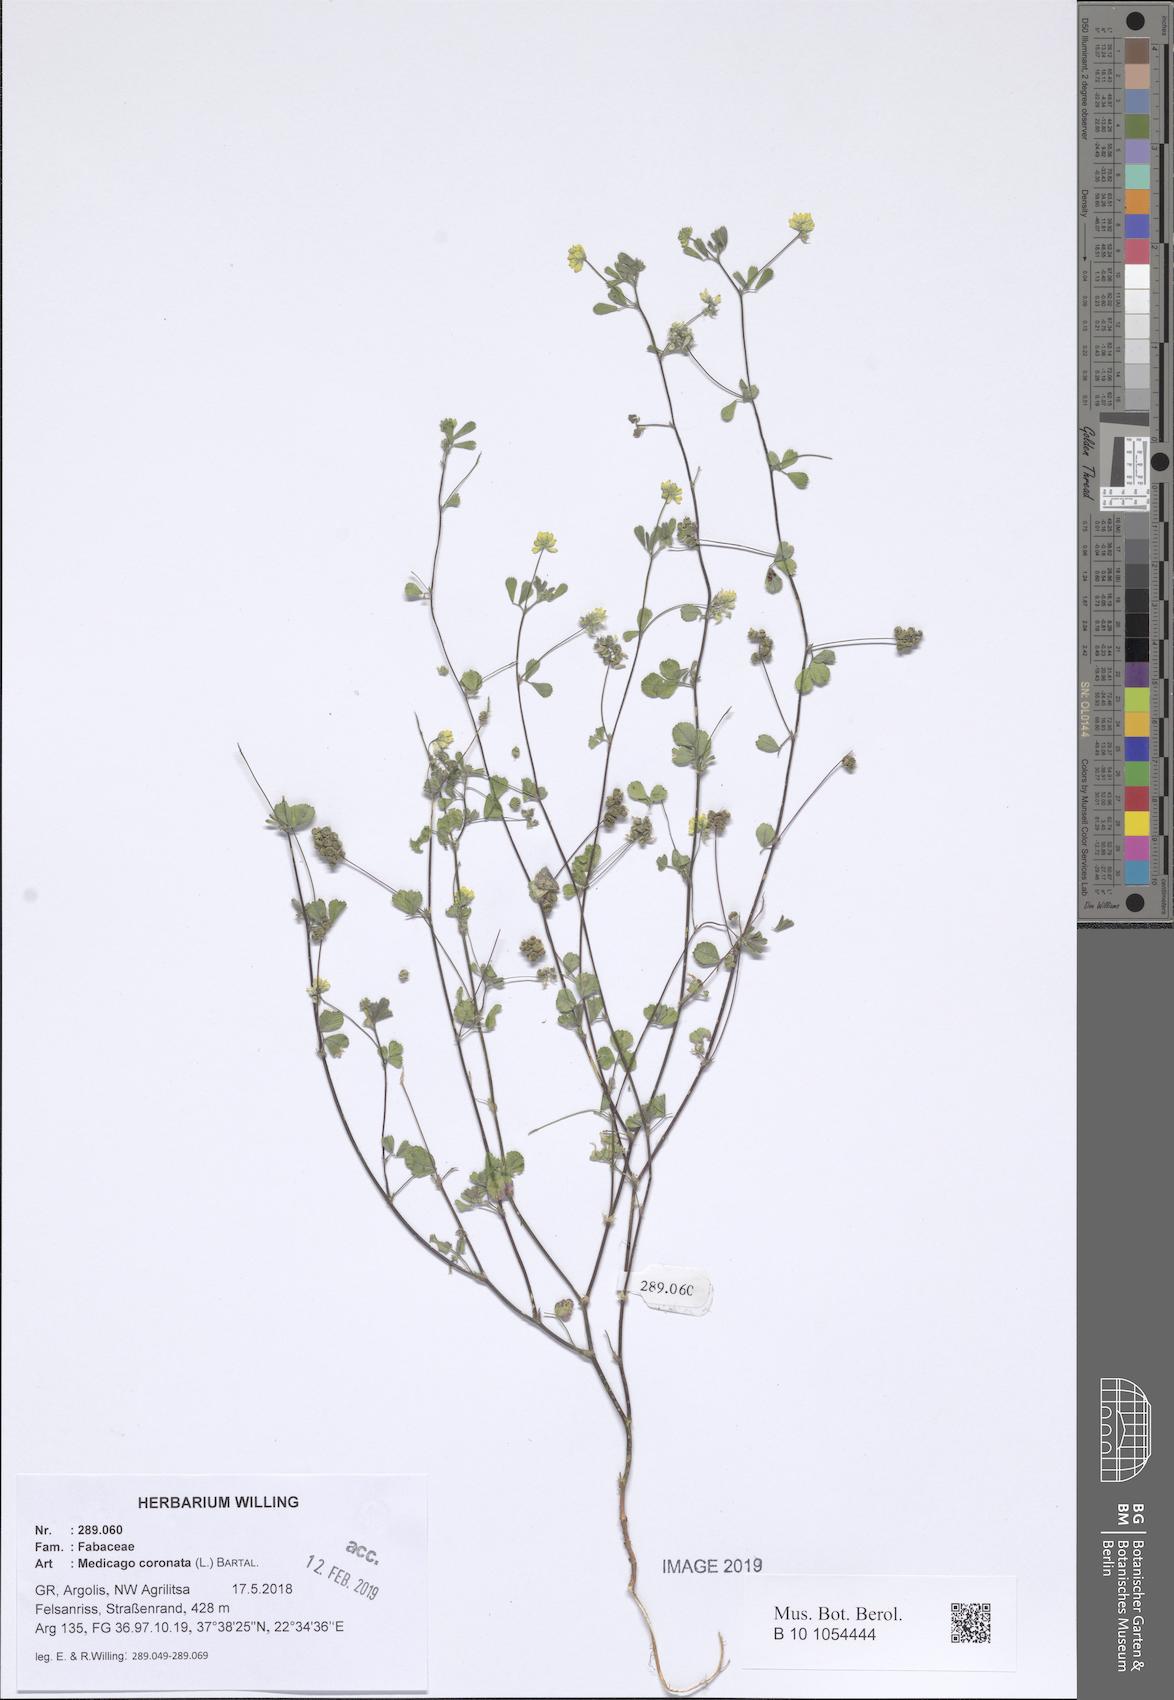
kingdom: Plantae
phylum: Tracheophyta
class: Magnoliopsida
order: Fabales
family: Fabaceae
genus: Medicago
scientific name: Medicago coronata
